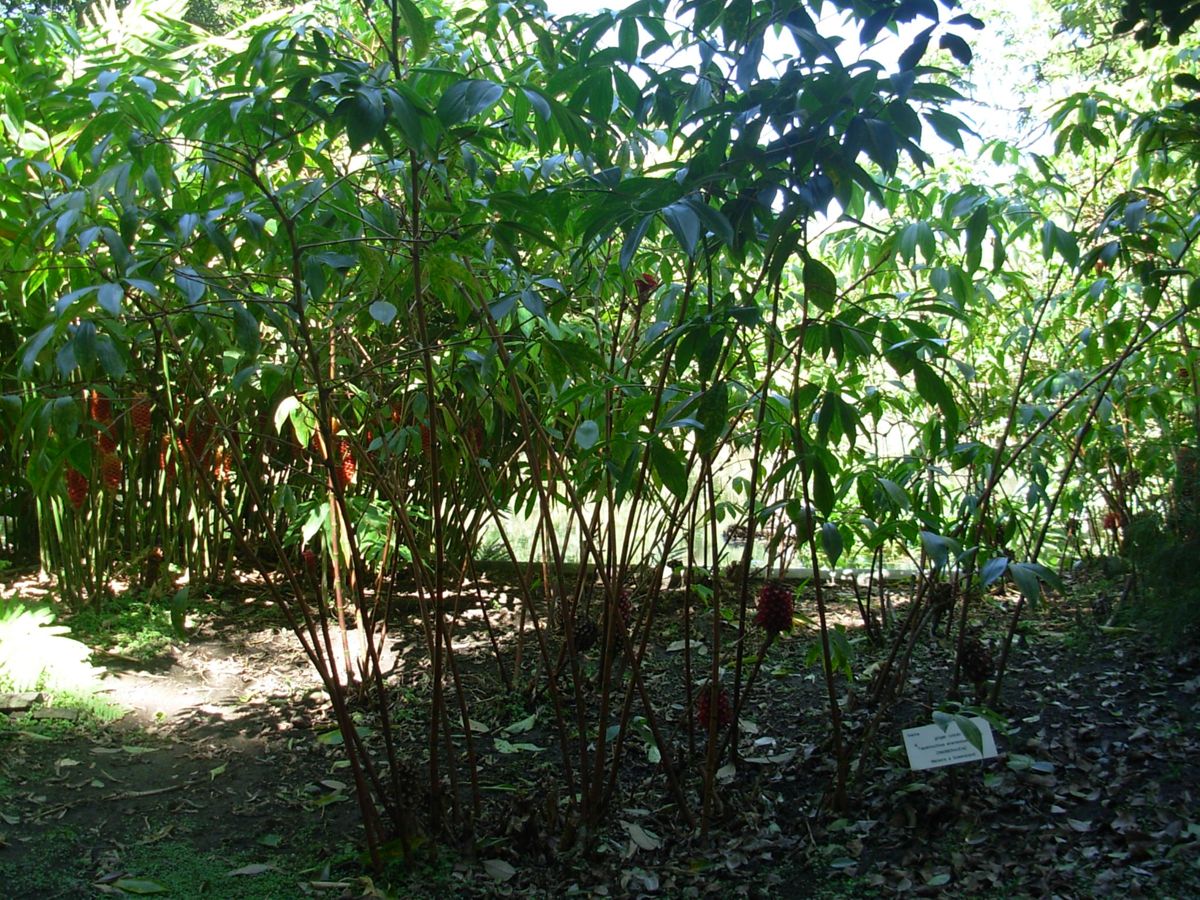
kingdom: Plantae
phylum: Tracheophyta
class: Liliopsida
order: Zingiberales
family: Costaceae
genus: Tapeinochilos
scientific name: Tapeinochilos ananassae
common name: Torch-ginger
